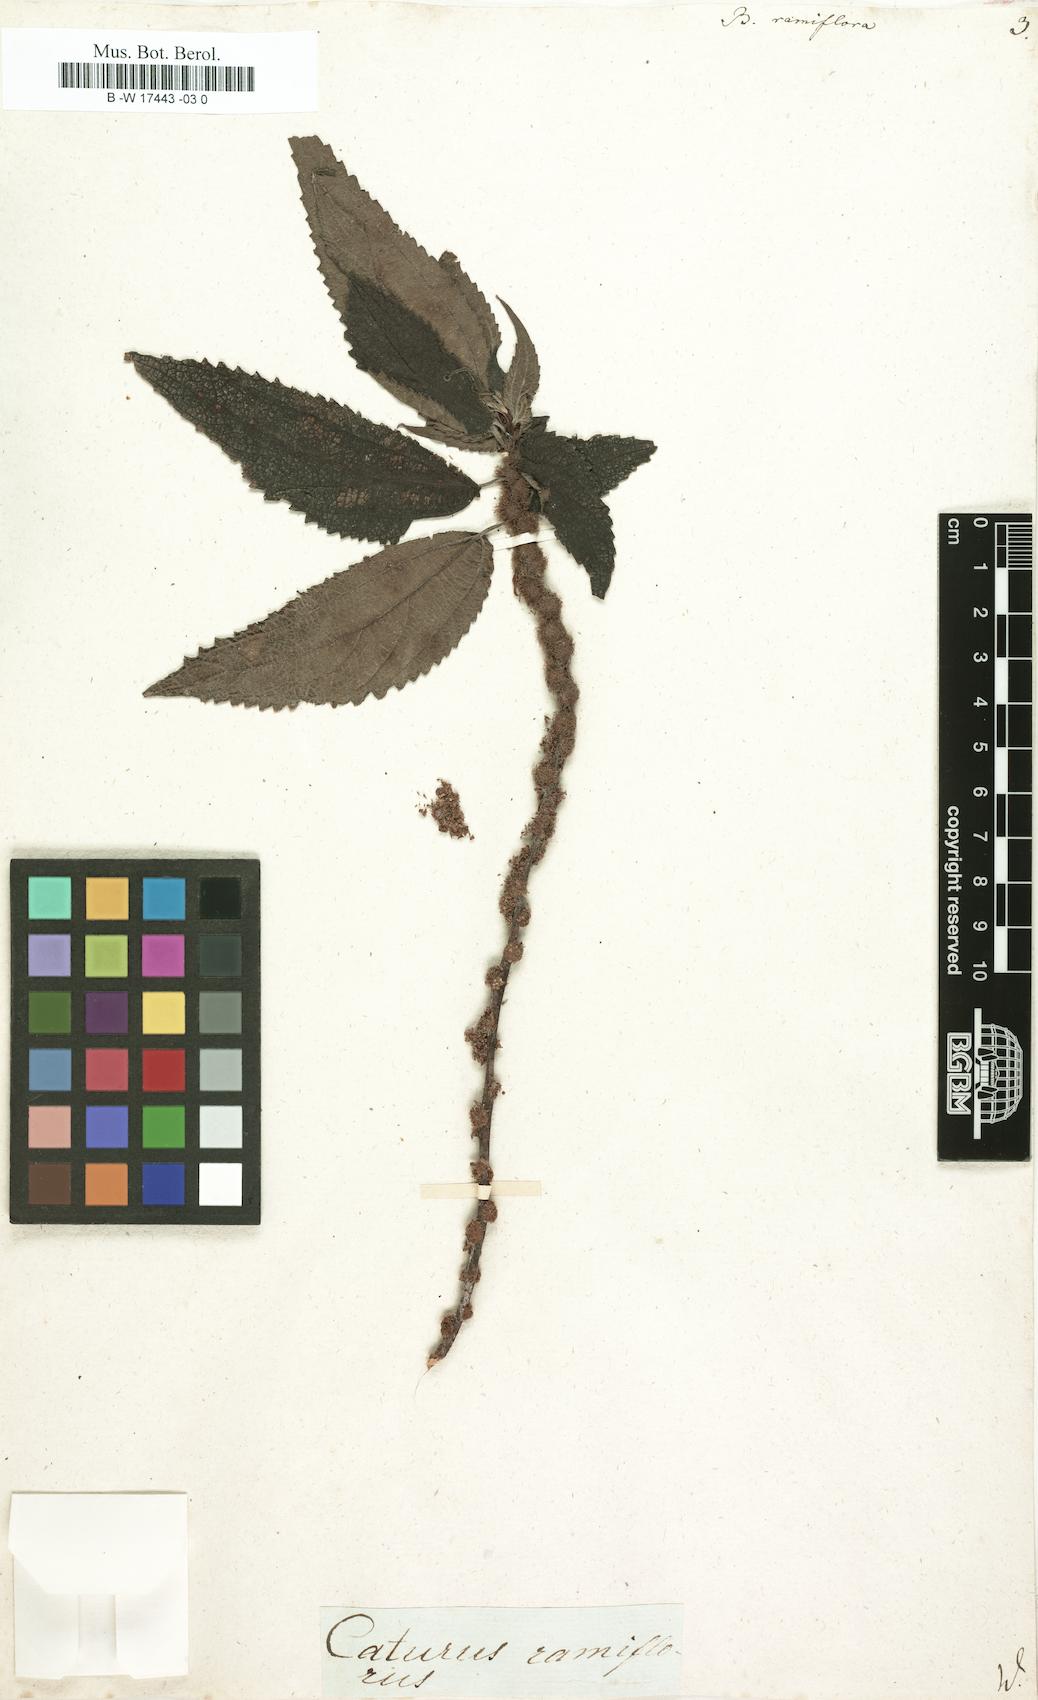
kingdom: Plantae
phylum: Tracheophyta
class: Magnoliopsida
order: Rosales
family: Urticaceae
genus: Boehmeria
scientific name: Boehmeria ramiflora
